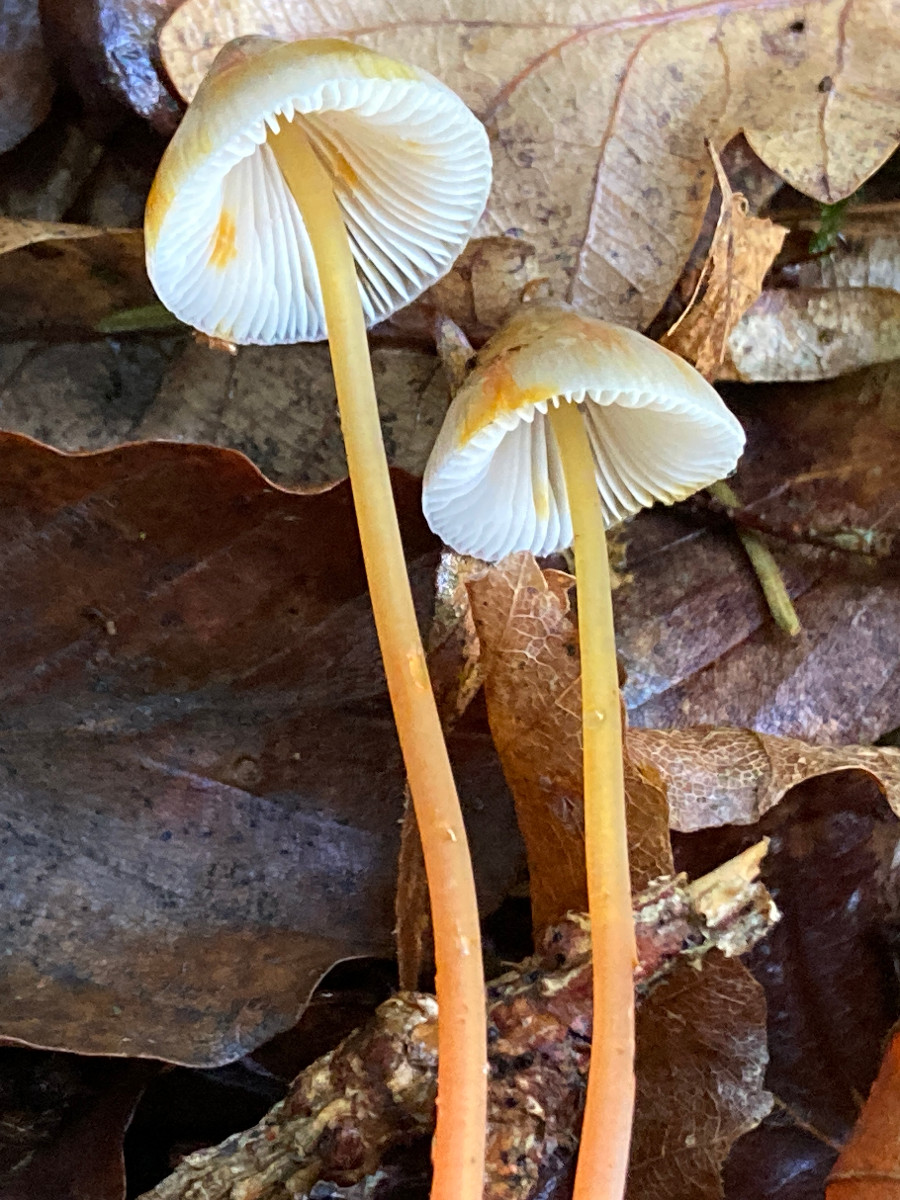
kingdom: Fungi
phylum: Basidiomycota
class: Agaricomycetes
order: Agaricales
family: Mycenaceae
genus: Mycena
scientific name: Mycena crocata
